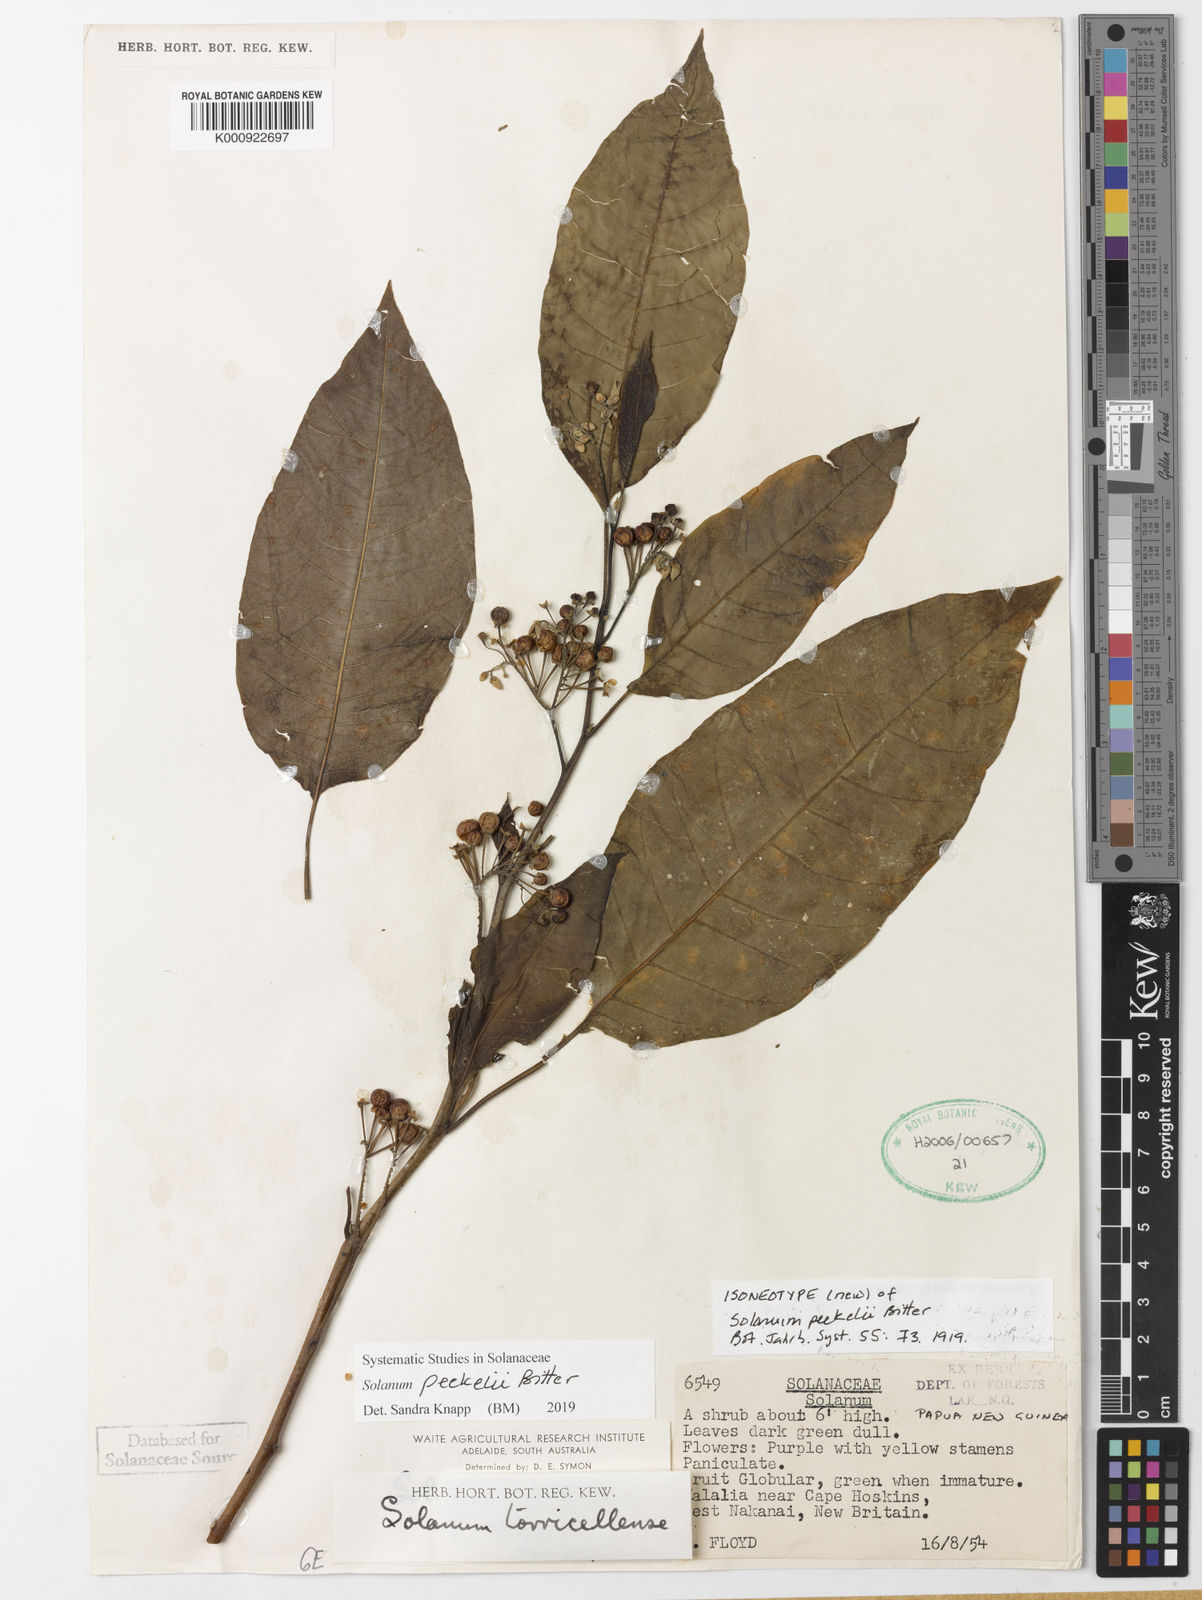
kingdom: Plantae
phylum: Tracheophyta
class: Magnoliopsida
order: Solanales
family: Solanaceae
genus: Solanum
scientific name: Solanum peekelii
